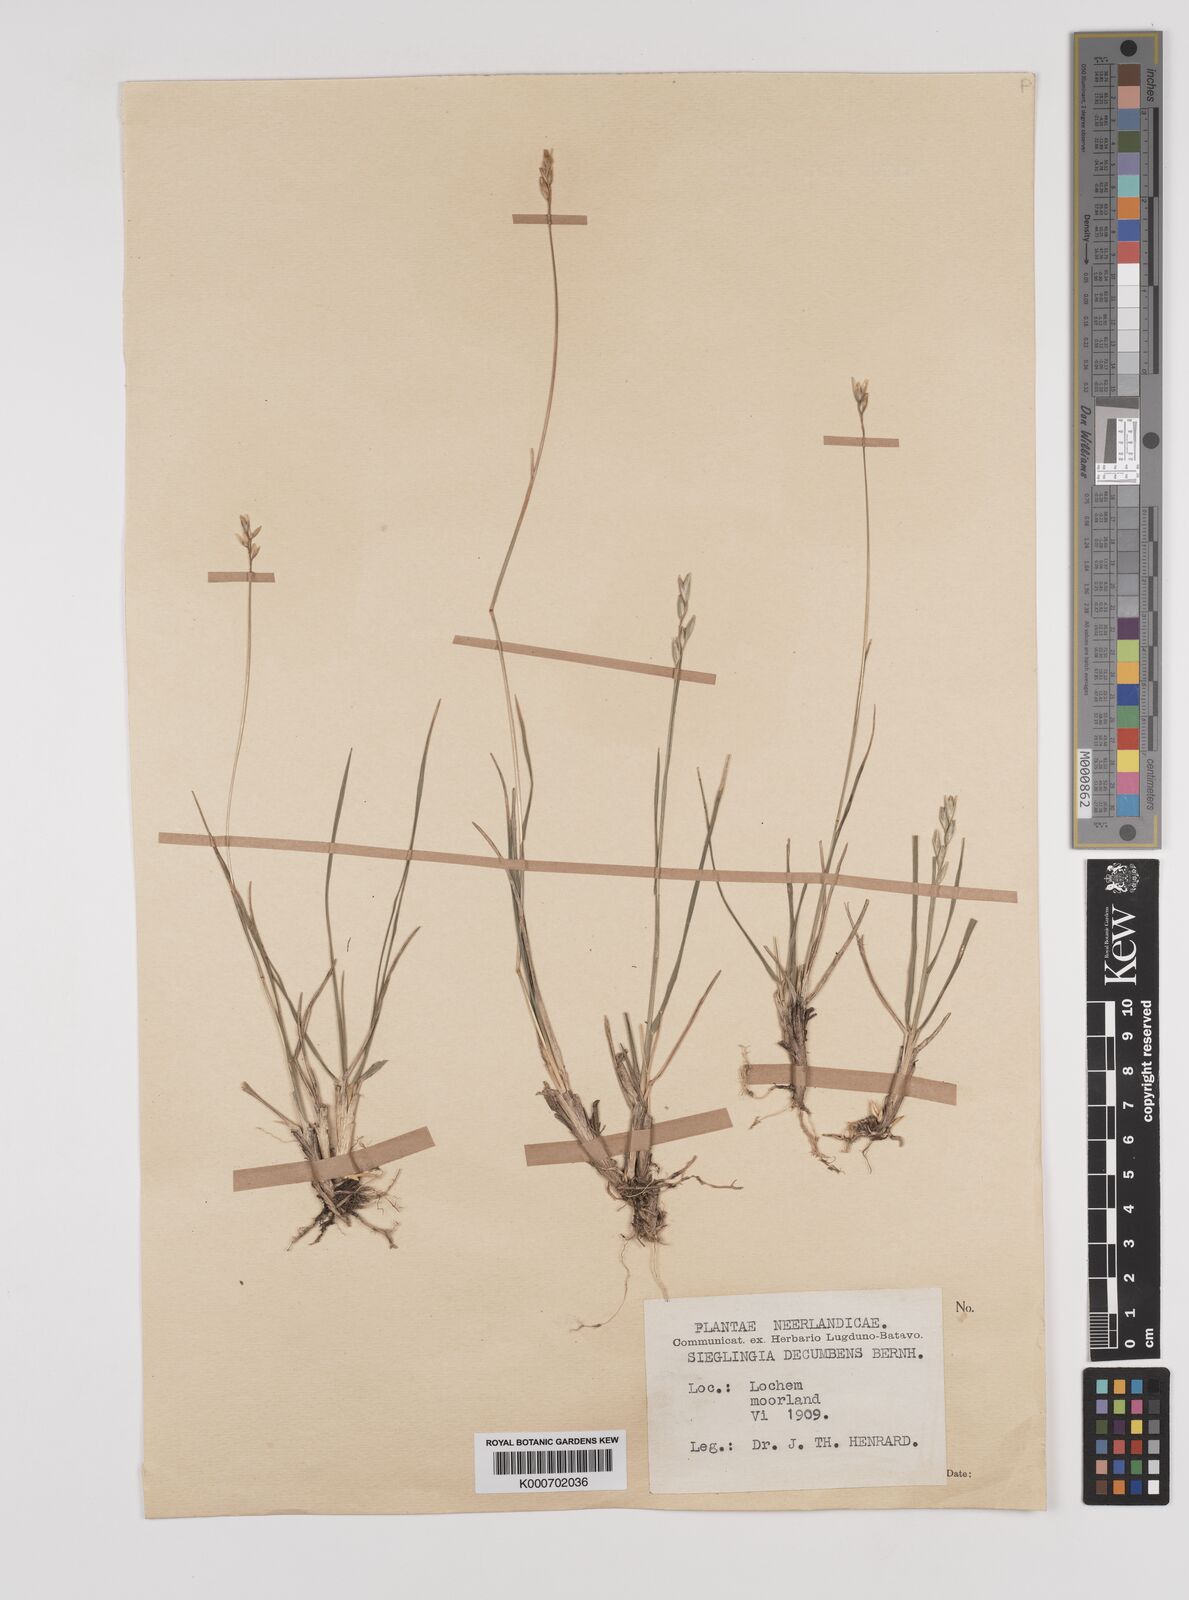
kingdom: Plantae
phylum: Tracheophyta
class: Liliopsida
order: Poales
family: Poaceae
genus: Danthonia
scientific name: Danthonia decumbens
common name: Common heathgrass
